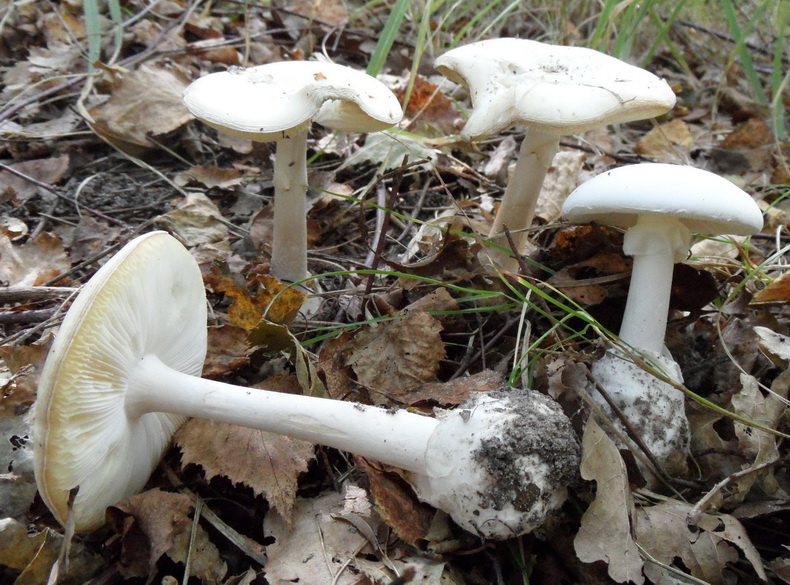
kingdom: Fungi
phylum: Basidiomycota
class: Agaricomycetes
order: Agaricales
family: Amanitaceae
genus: Amanita
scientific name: Amanita phalloides
